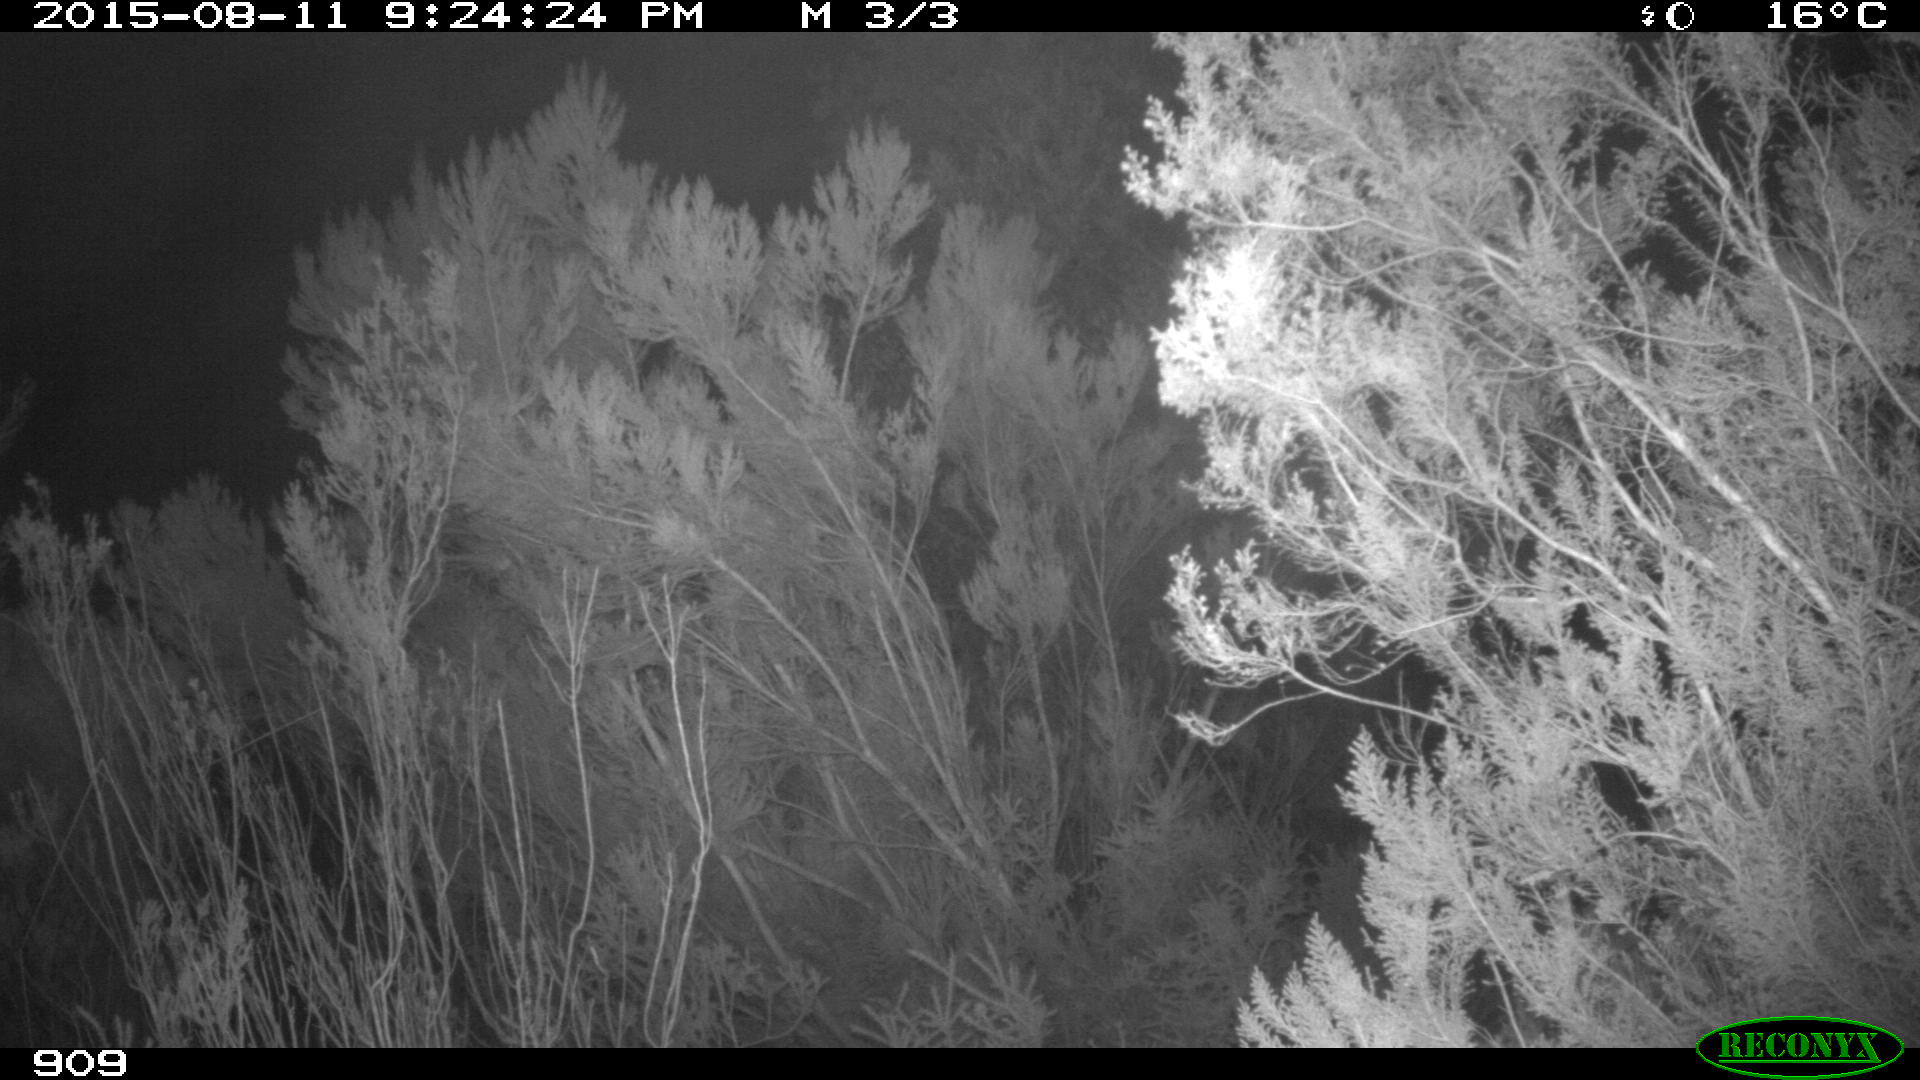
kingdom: Animalia
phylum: Chordata
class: Mammalia
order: Artiodactyla
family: Cervidae
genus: Capreolus
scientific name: Capreolus capreolus
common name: Western roe deer
